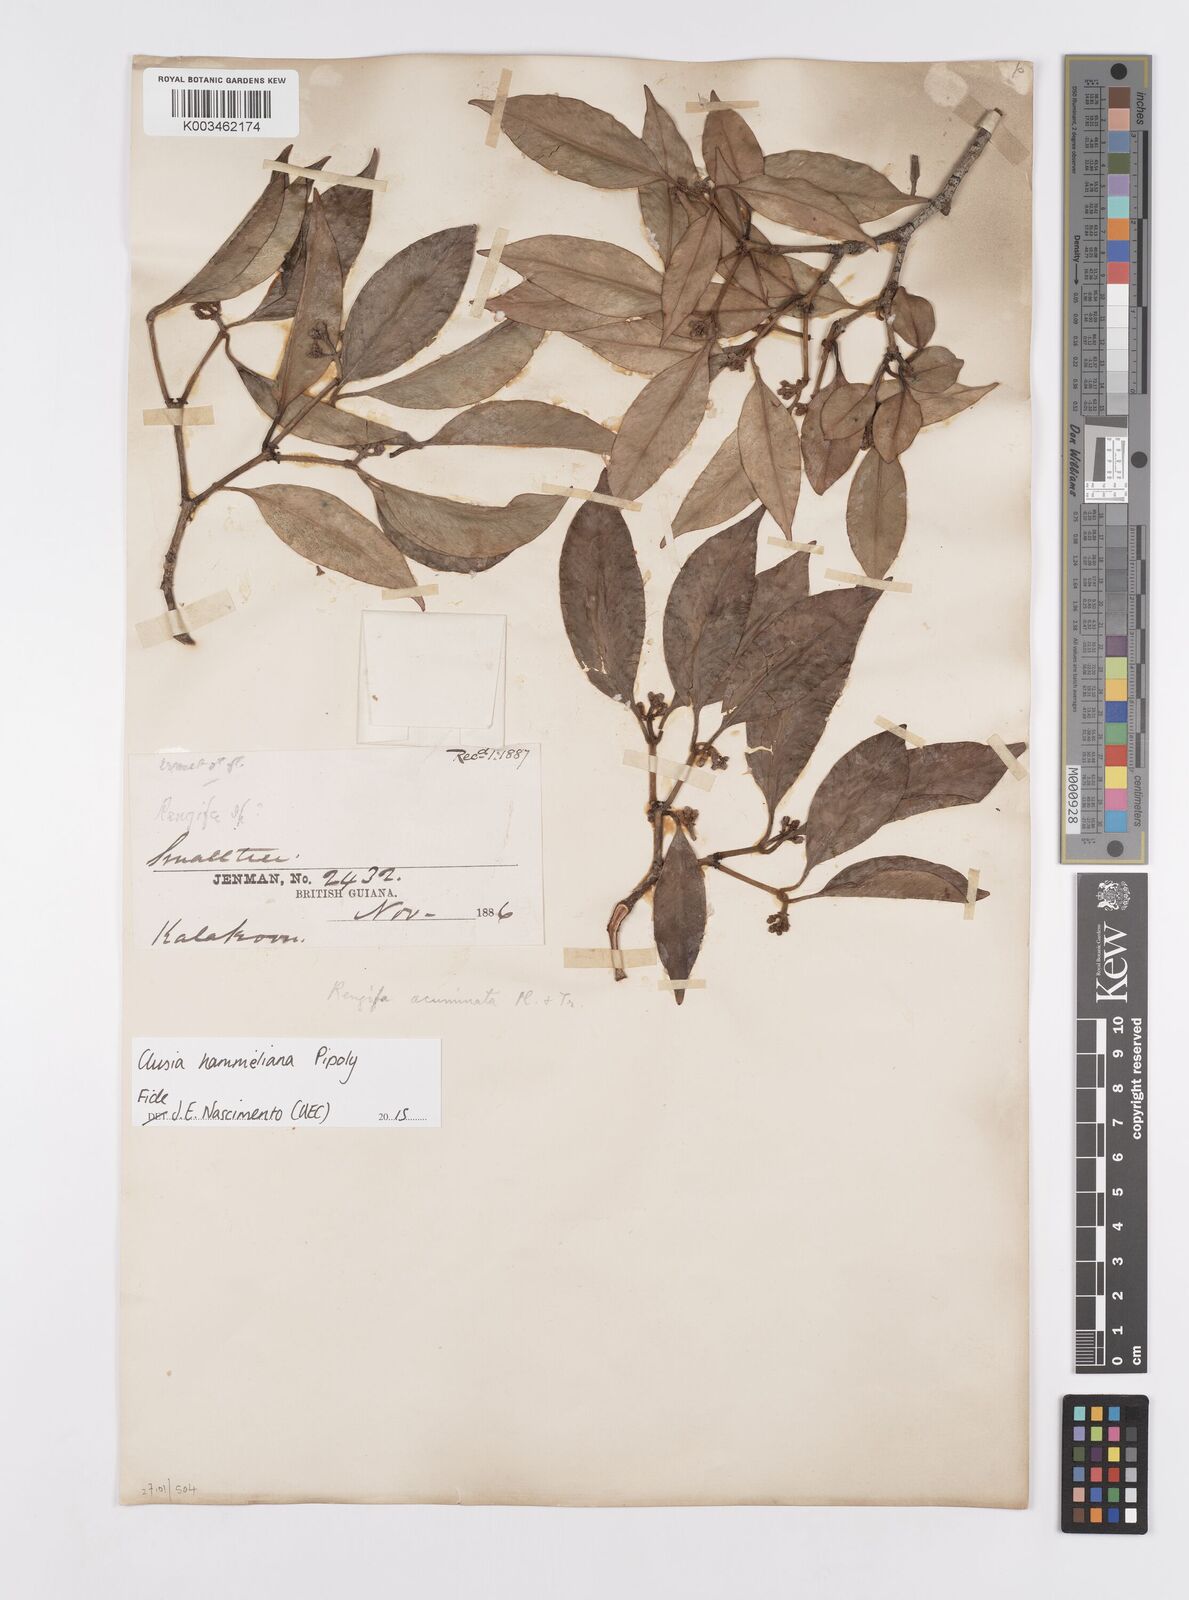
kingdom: Plantae
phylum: Tracheophyta
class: Magnoliopsida
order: Malpighiales
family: Clusiaceae
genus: Clusia
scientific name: Clusia hammeliana
